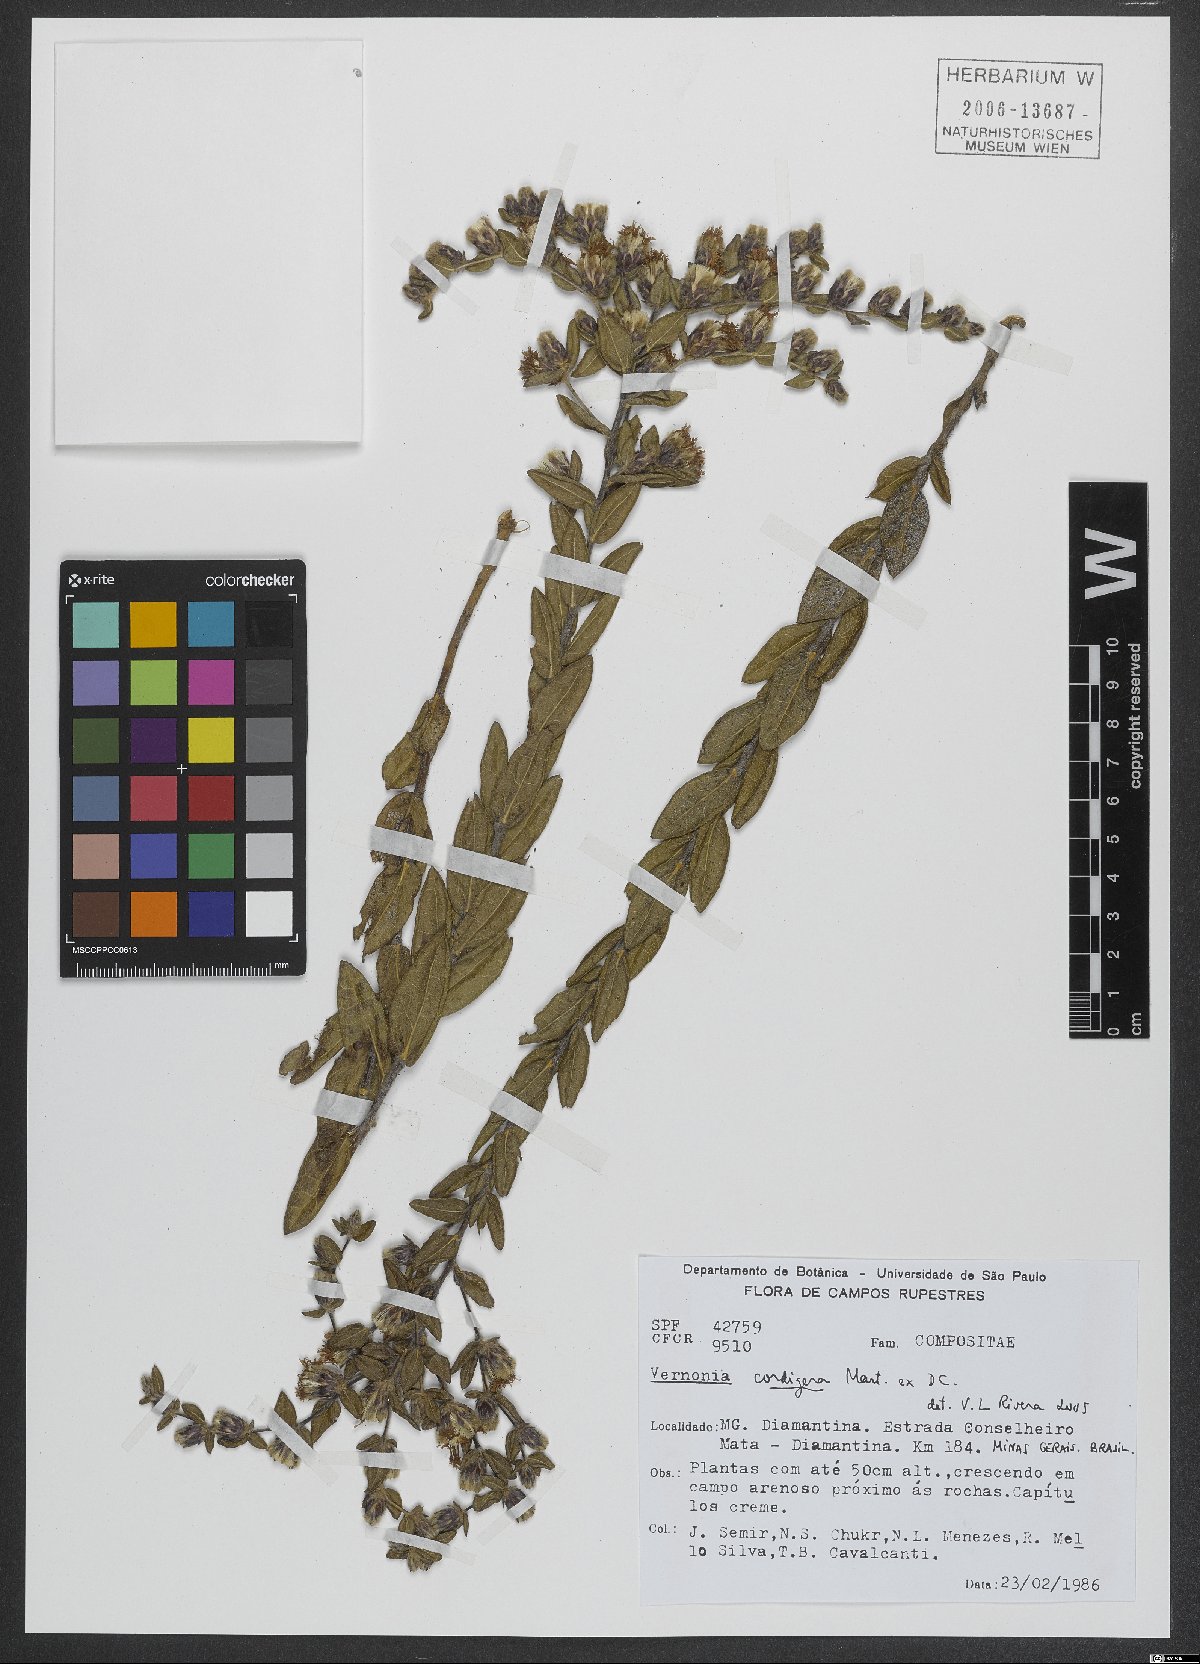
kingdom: Plantae
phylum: Tracheophyta
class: Magnoliopsida
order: Asterales
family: Asteraceae
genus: Lessingianthus
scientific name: Lessingianthus cordiger
